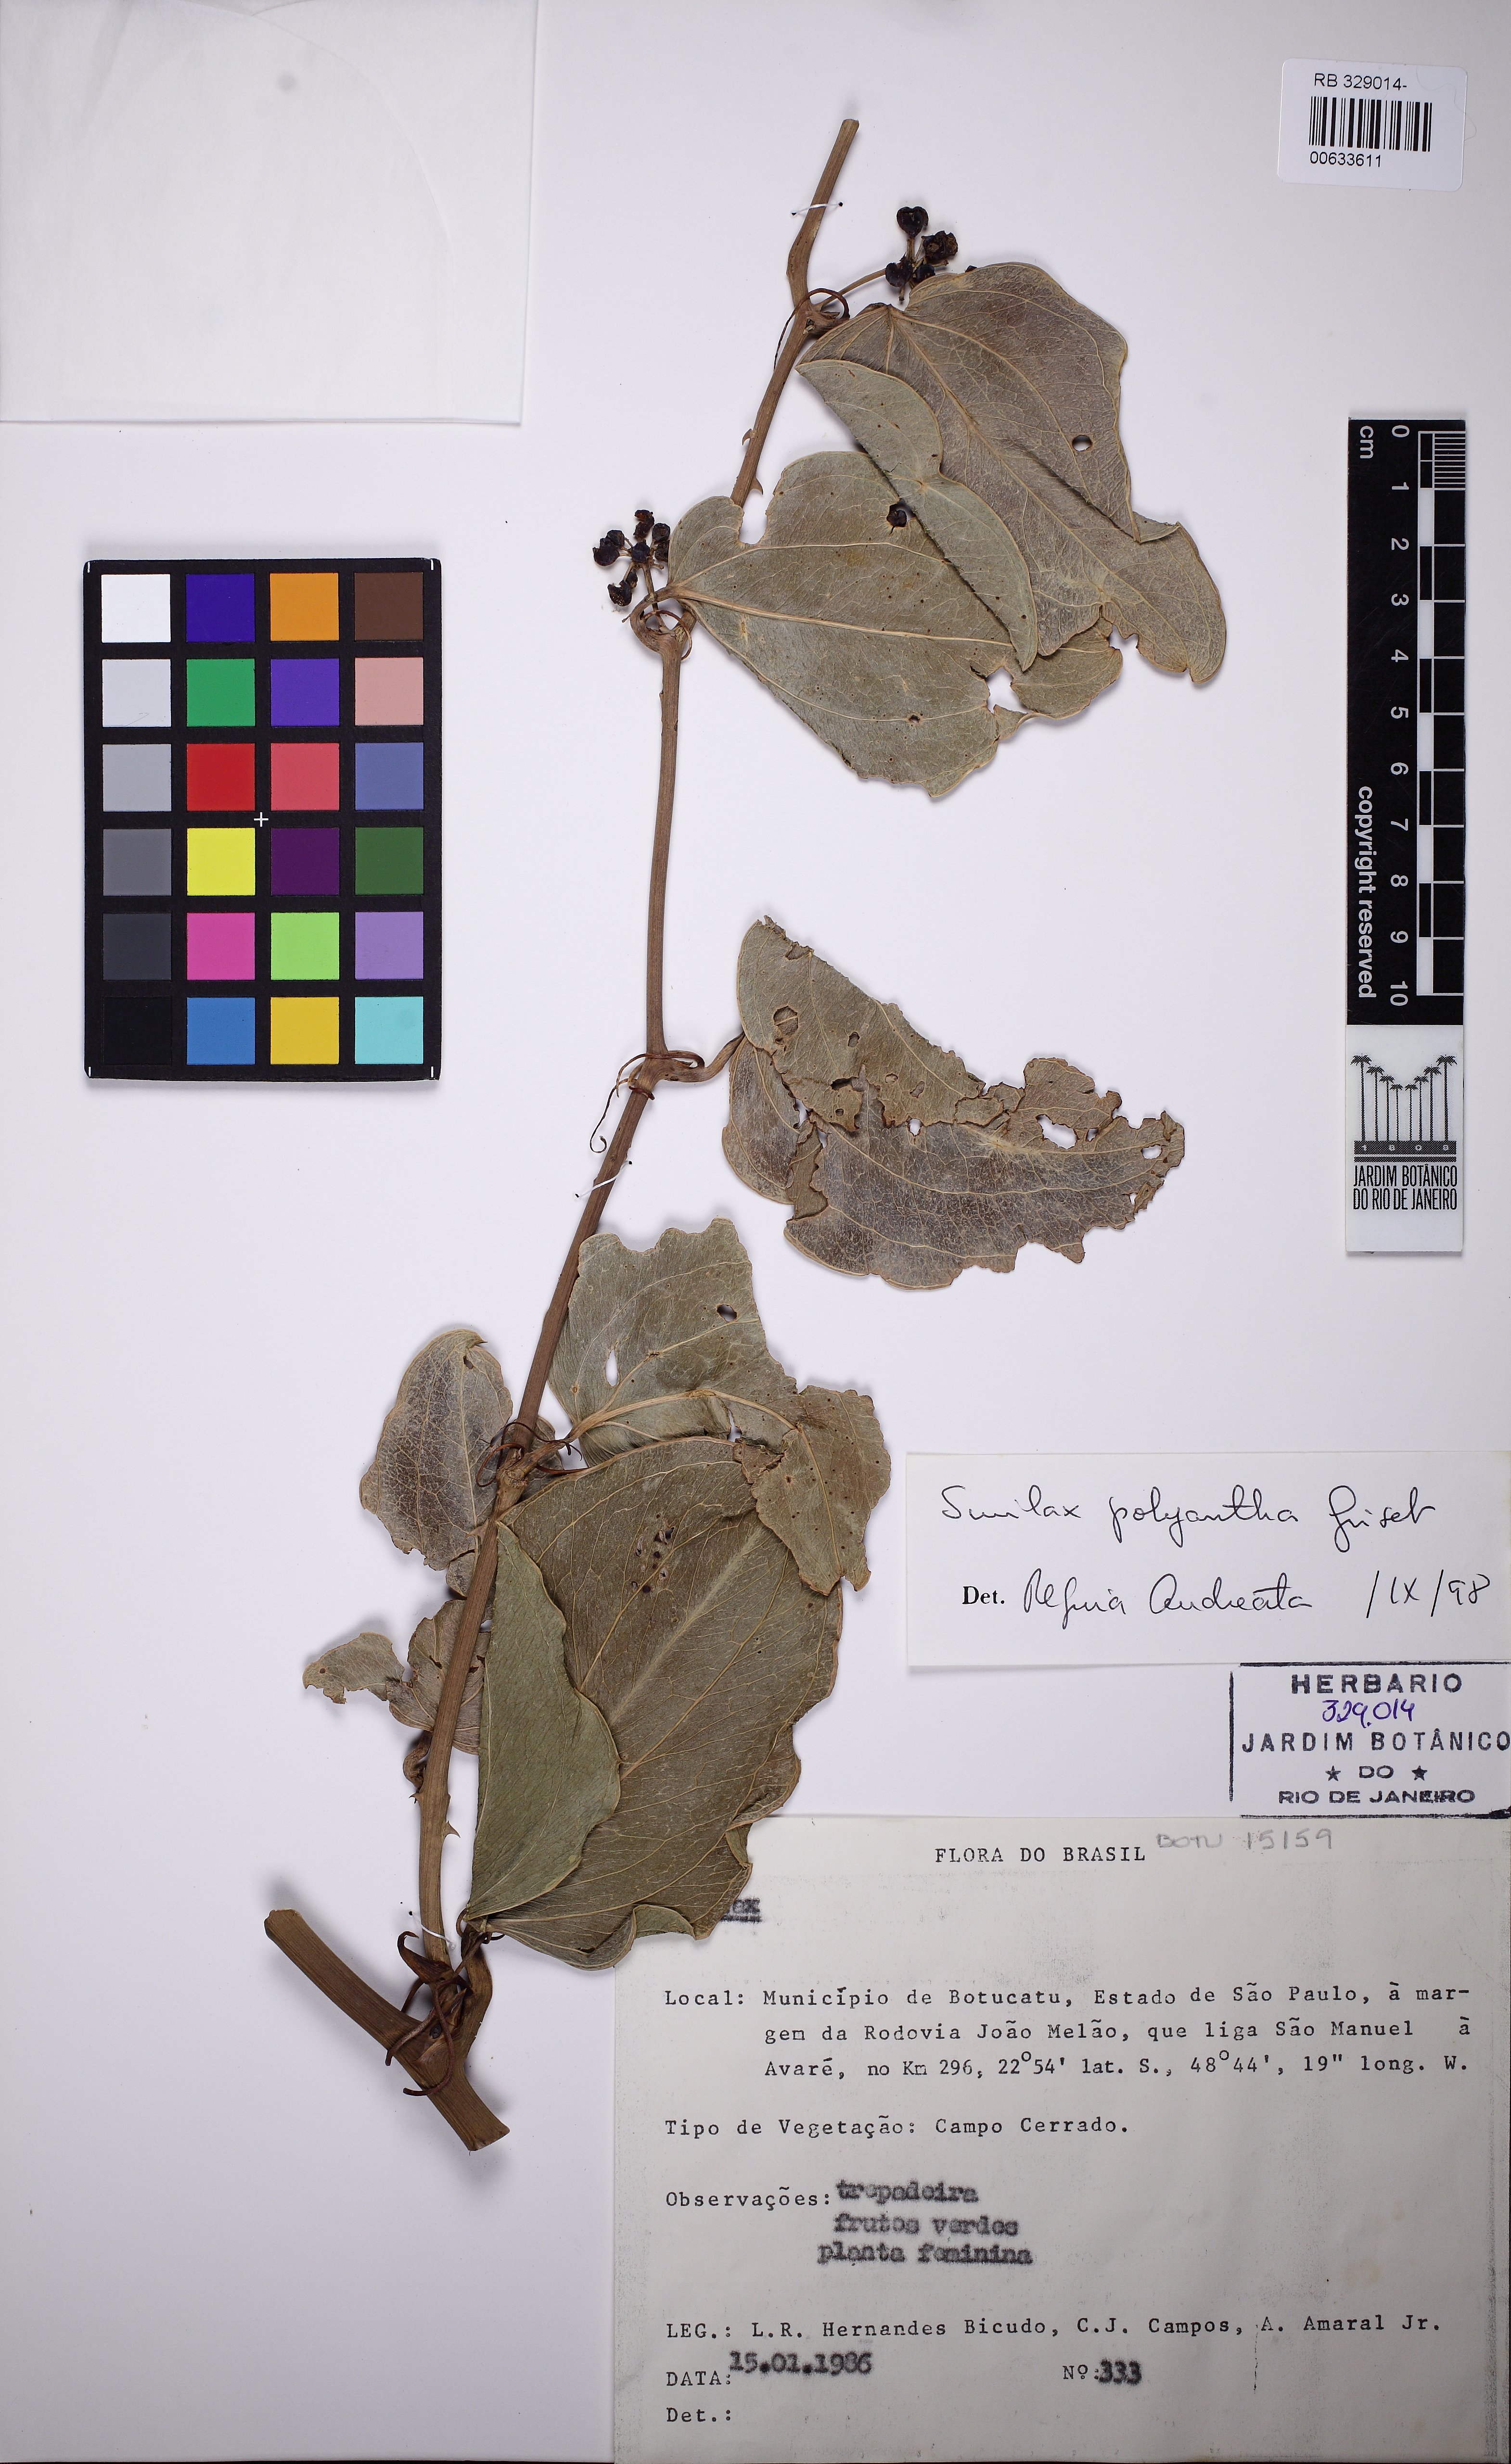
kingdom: Plantae
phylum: Tracheophyta
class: Liliopsida
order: Liliales
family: Smilacaceae
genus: Smilax
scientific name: Smilax polyantha
